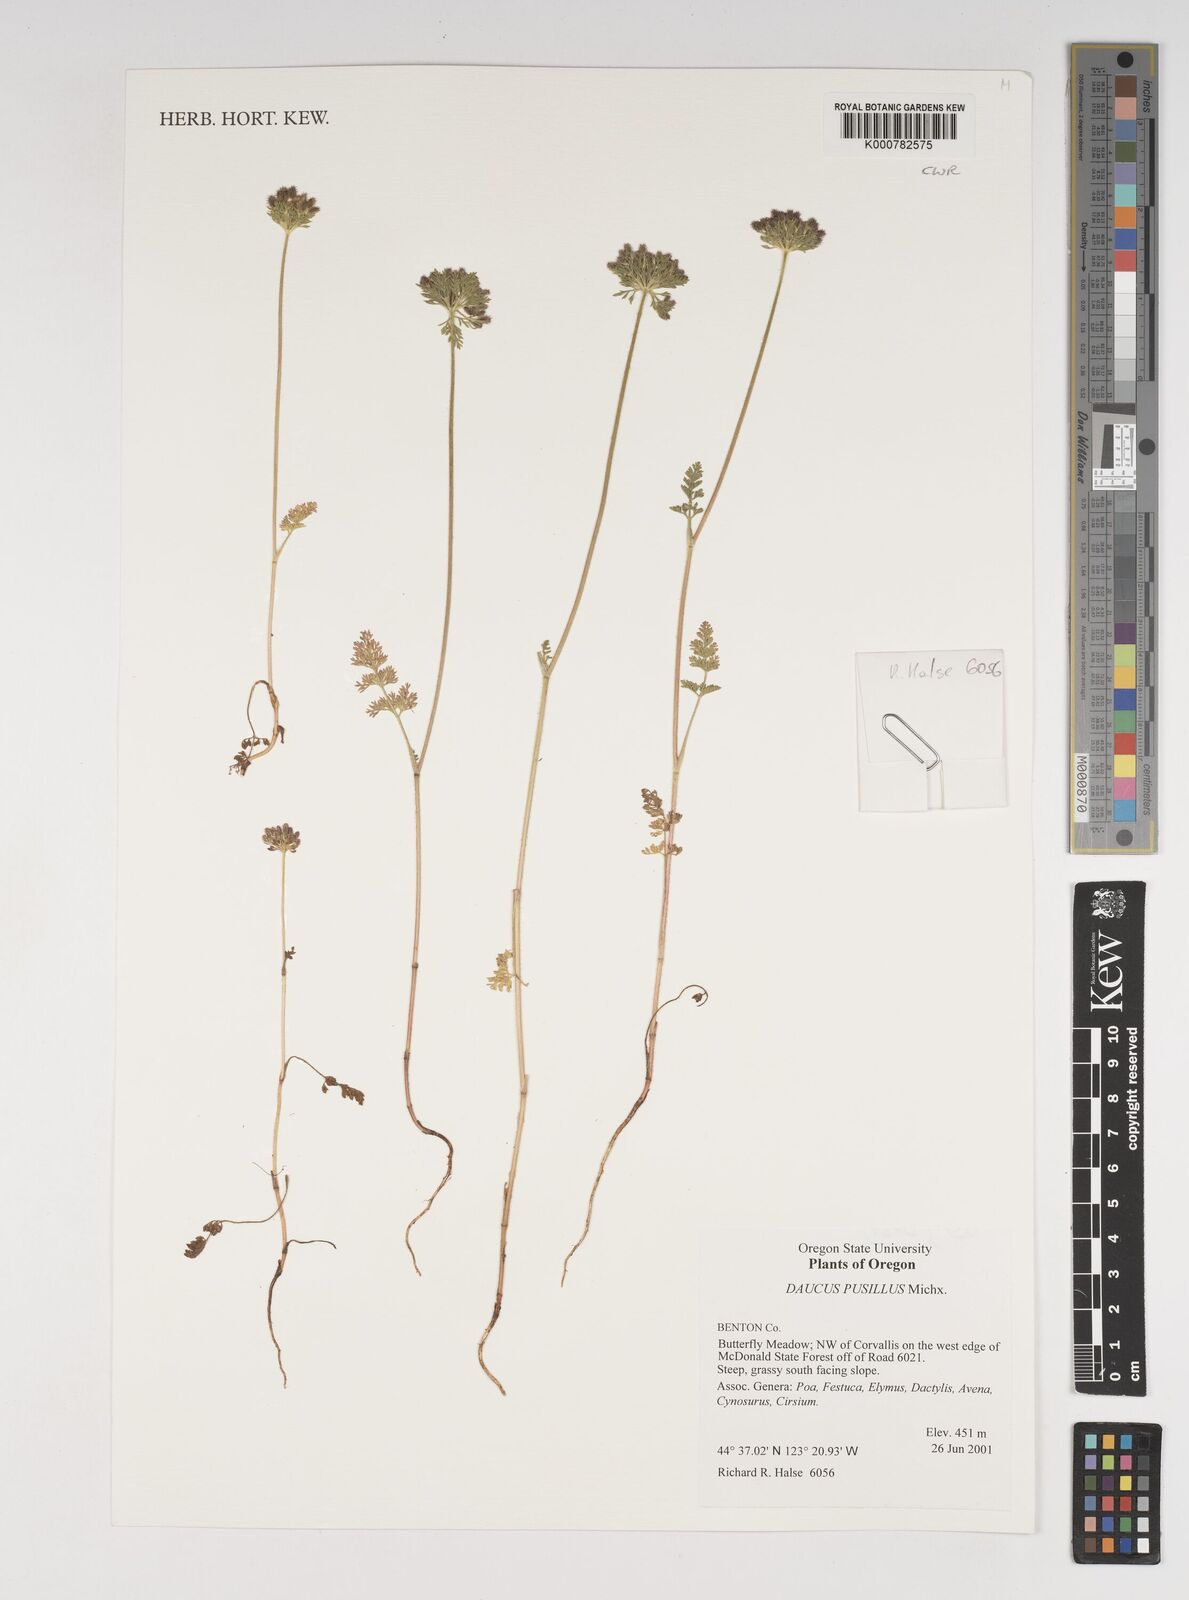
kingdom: Plantae
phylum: Tracheophyta
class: Magnoliopsida
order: Apiales
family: Apiaceae
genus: Daucus
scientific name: Daucus pusillus
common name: Southwest wild carrot
